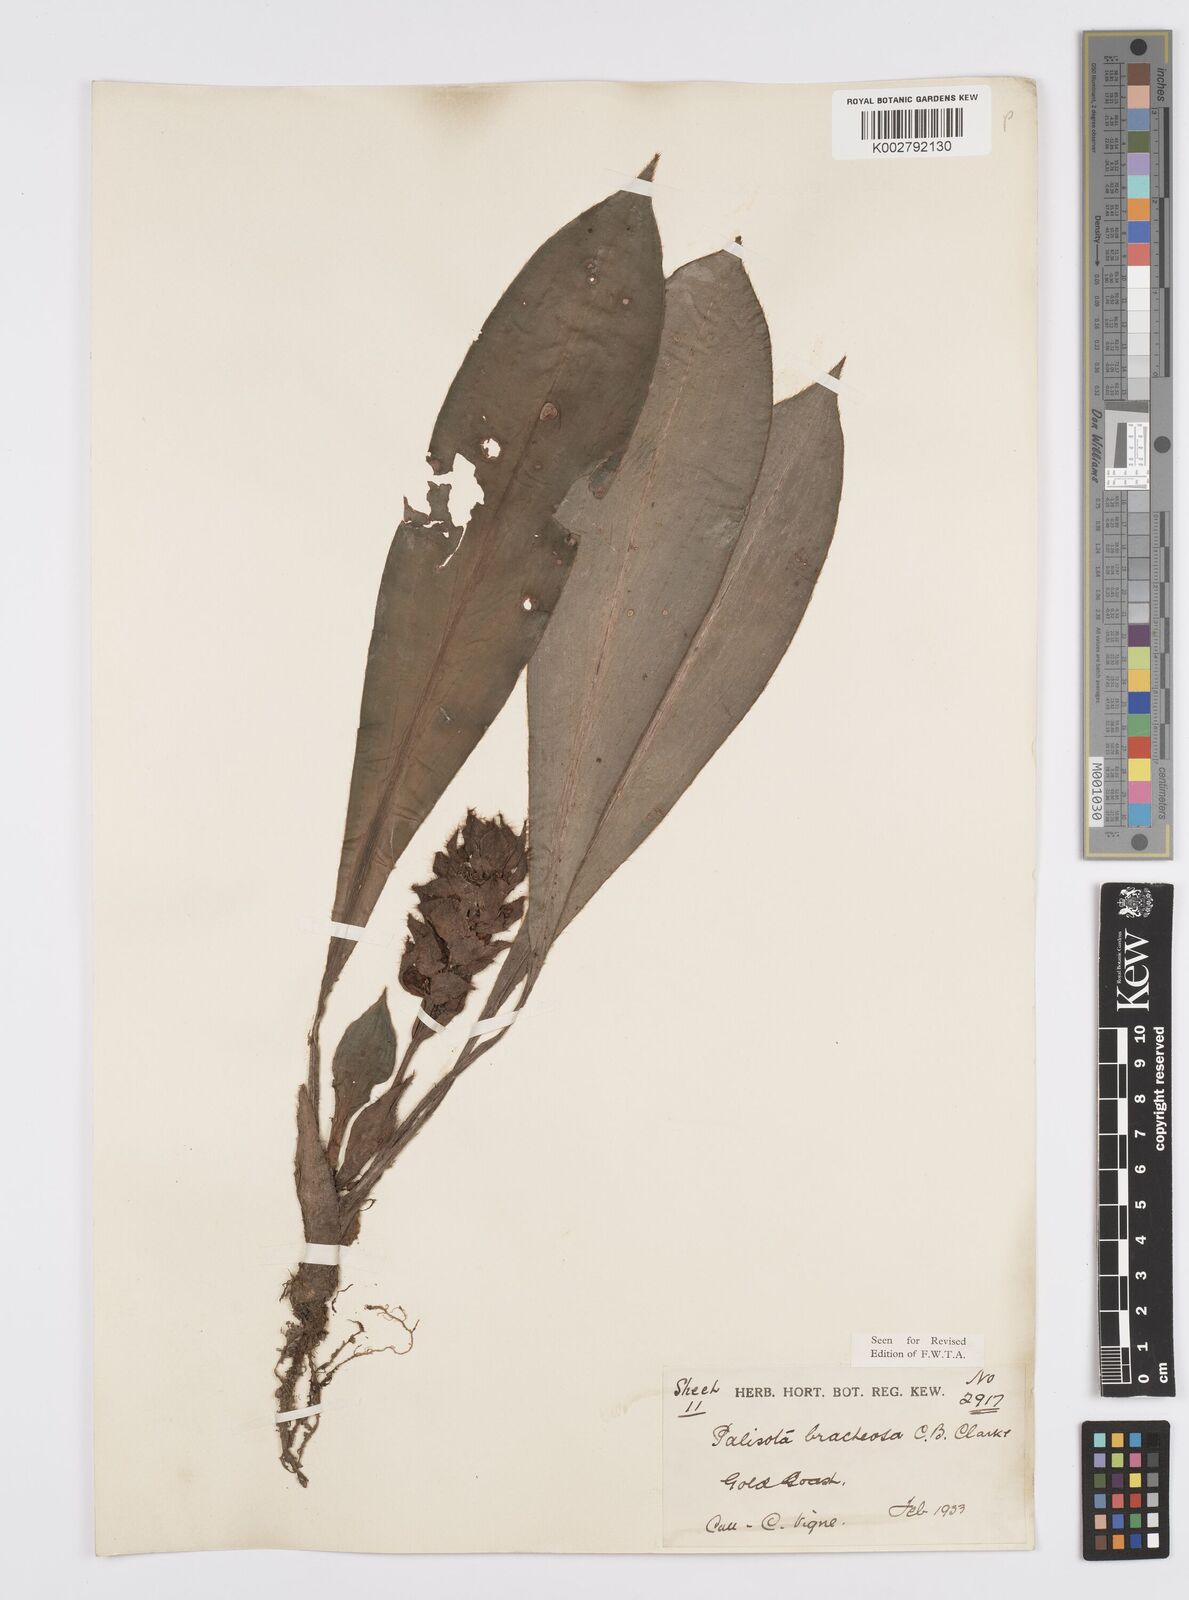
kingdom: Plantae
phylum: Tracheophyta
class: Liliopsida
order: Commelinales
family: Commelinaceae
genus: Palisota
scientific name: Palisota bracteosa
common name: Palisota
